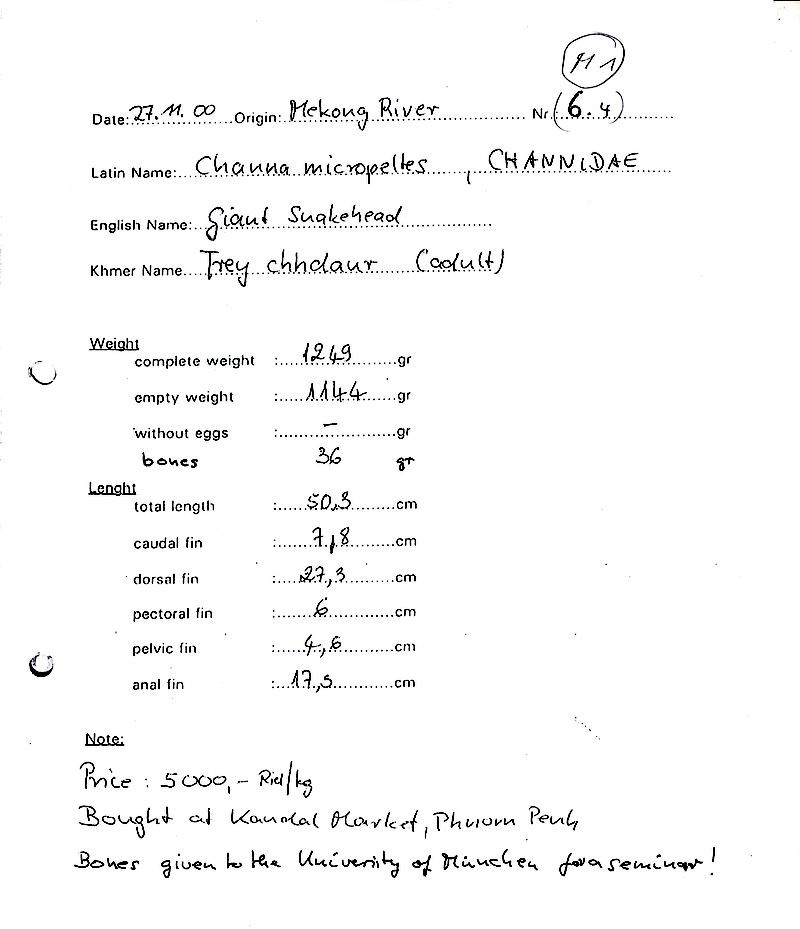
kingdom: Animalia
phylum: Chordata
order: Perciformes
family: Channidae
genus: Channa
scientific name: Channa micropeltes
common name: Giant snakehead
